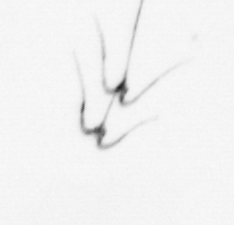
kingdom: Chromista
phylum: Myzozoa
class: Dinophyceae
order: Gonyaulacales
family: Ceratiaceae
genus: Ceratium
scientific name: Ceratium
